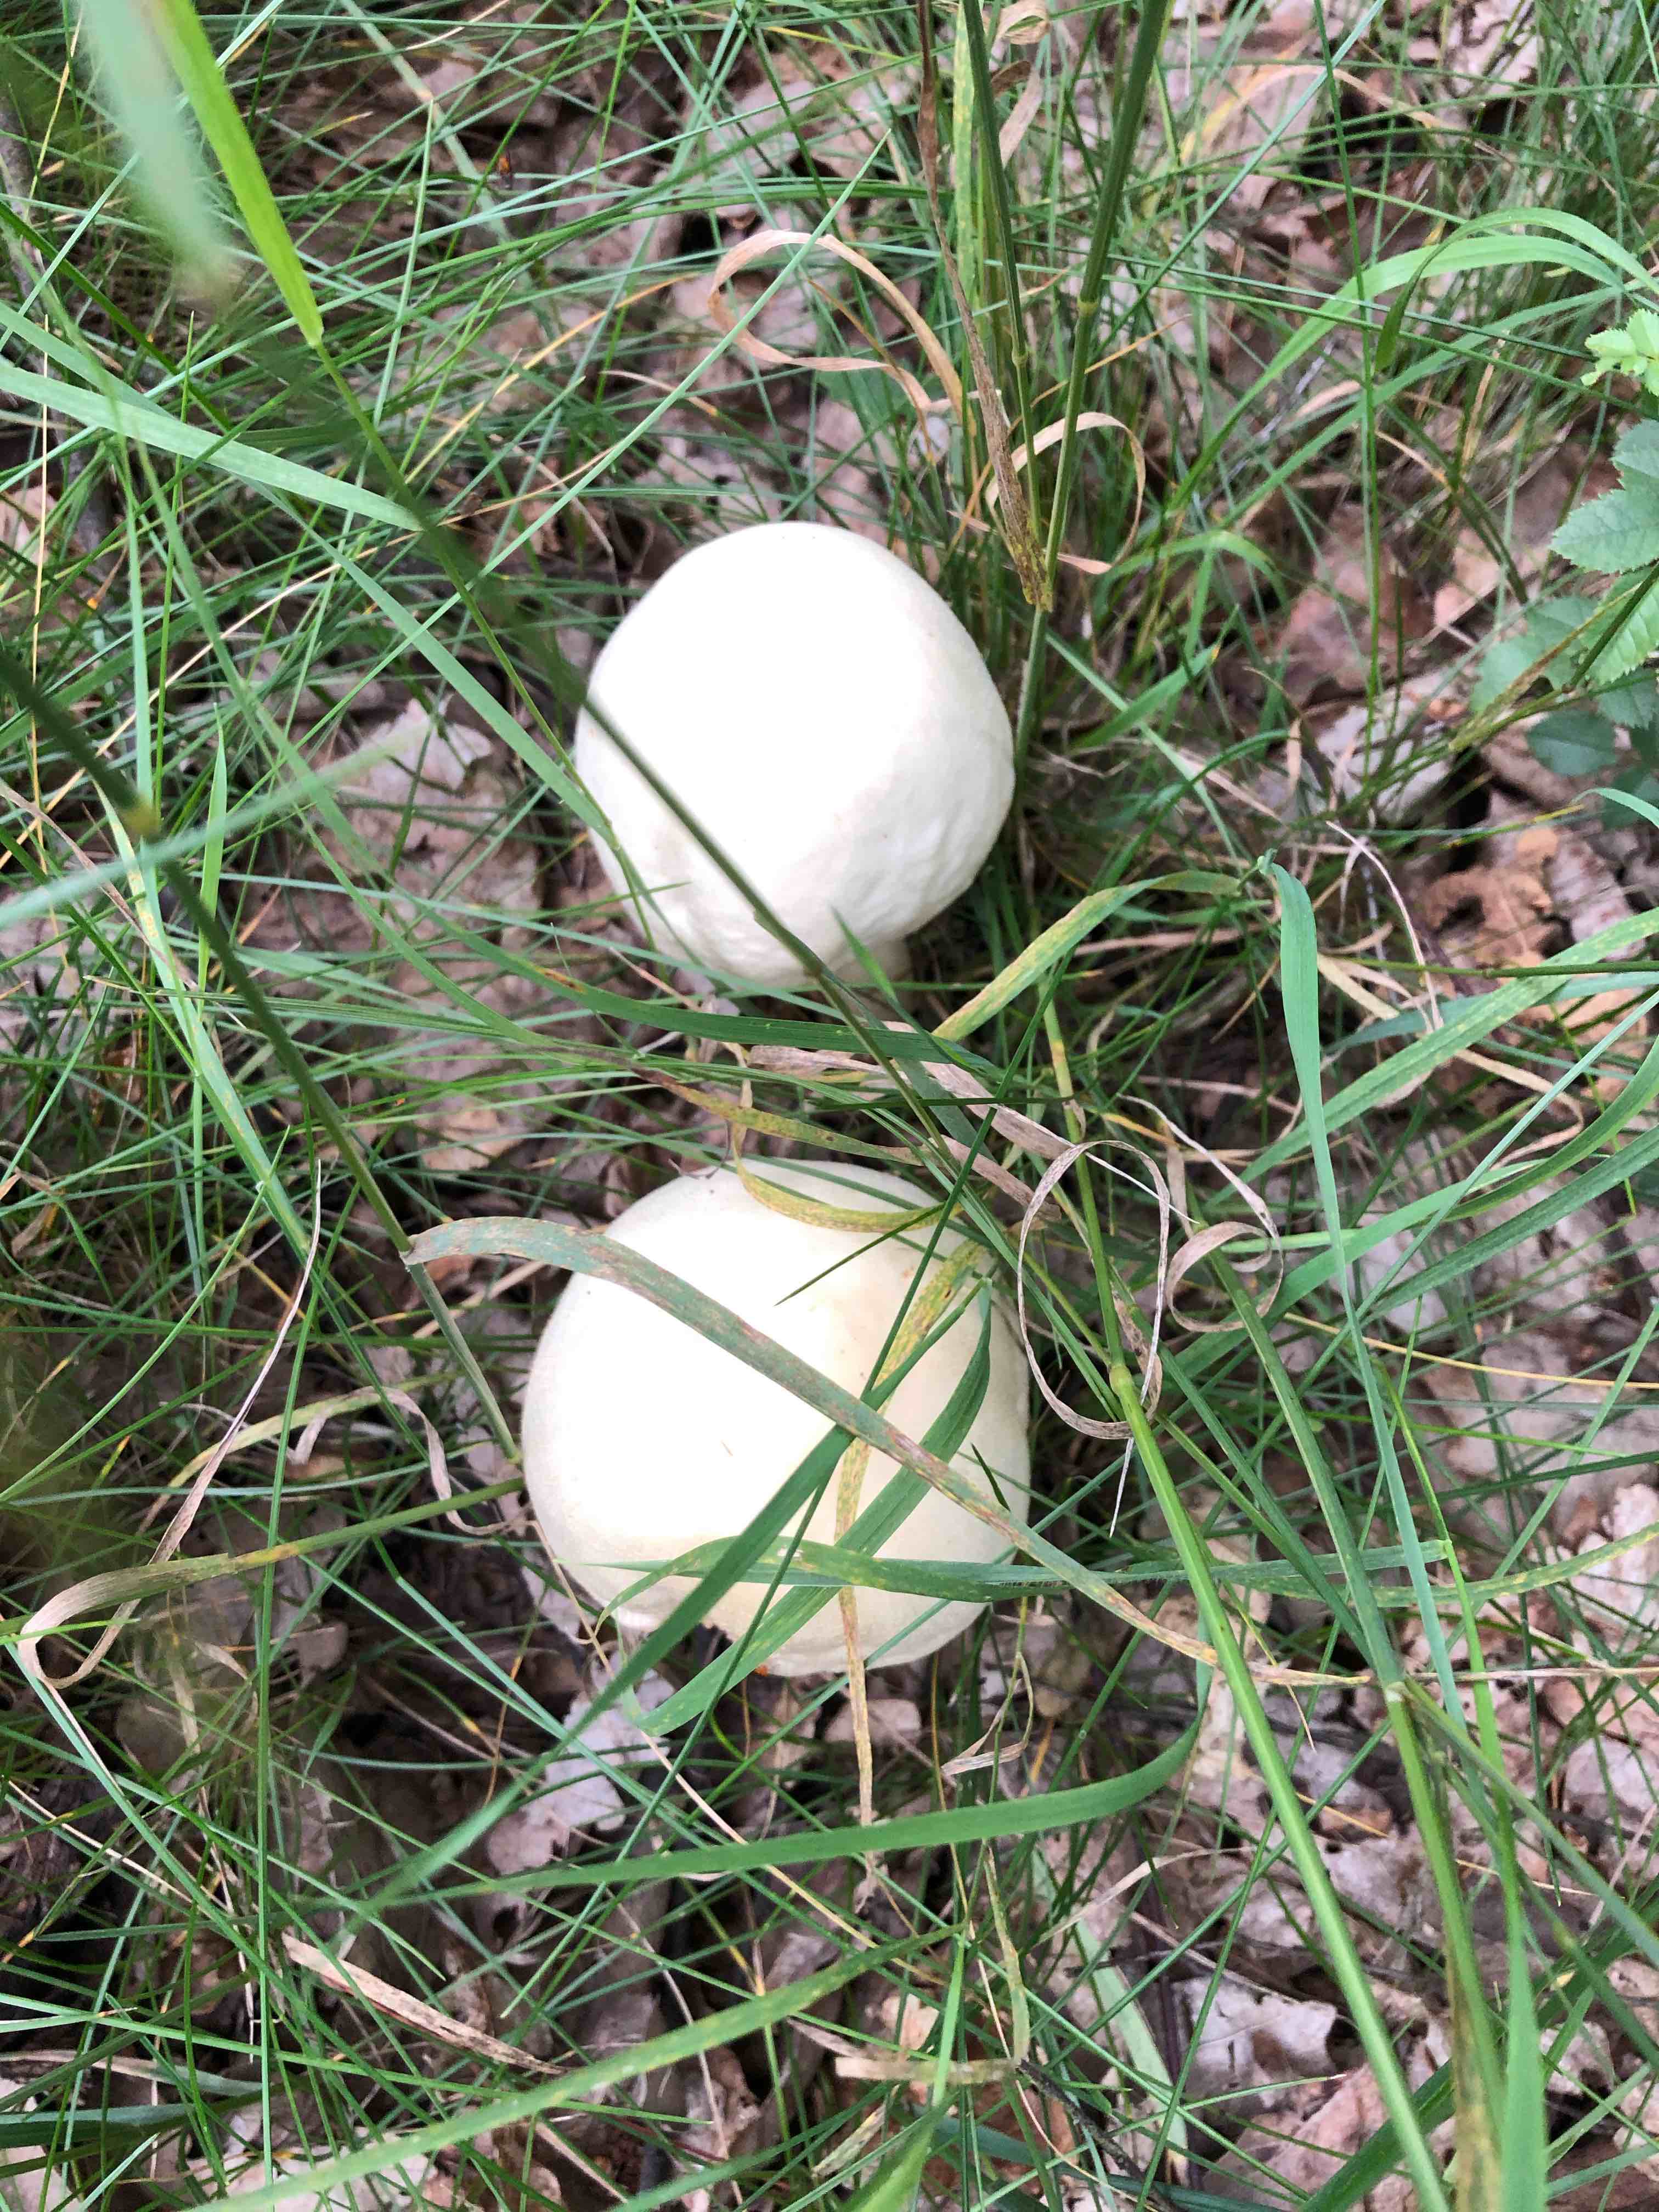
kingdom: Fungi
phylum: Basidiomycota
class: Agaricomycetes
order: Agaricales
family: Agaricaceae
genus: Agaricus
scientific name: Agaricus
